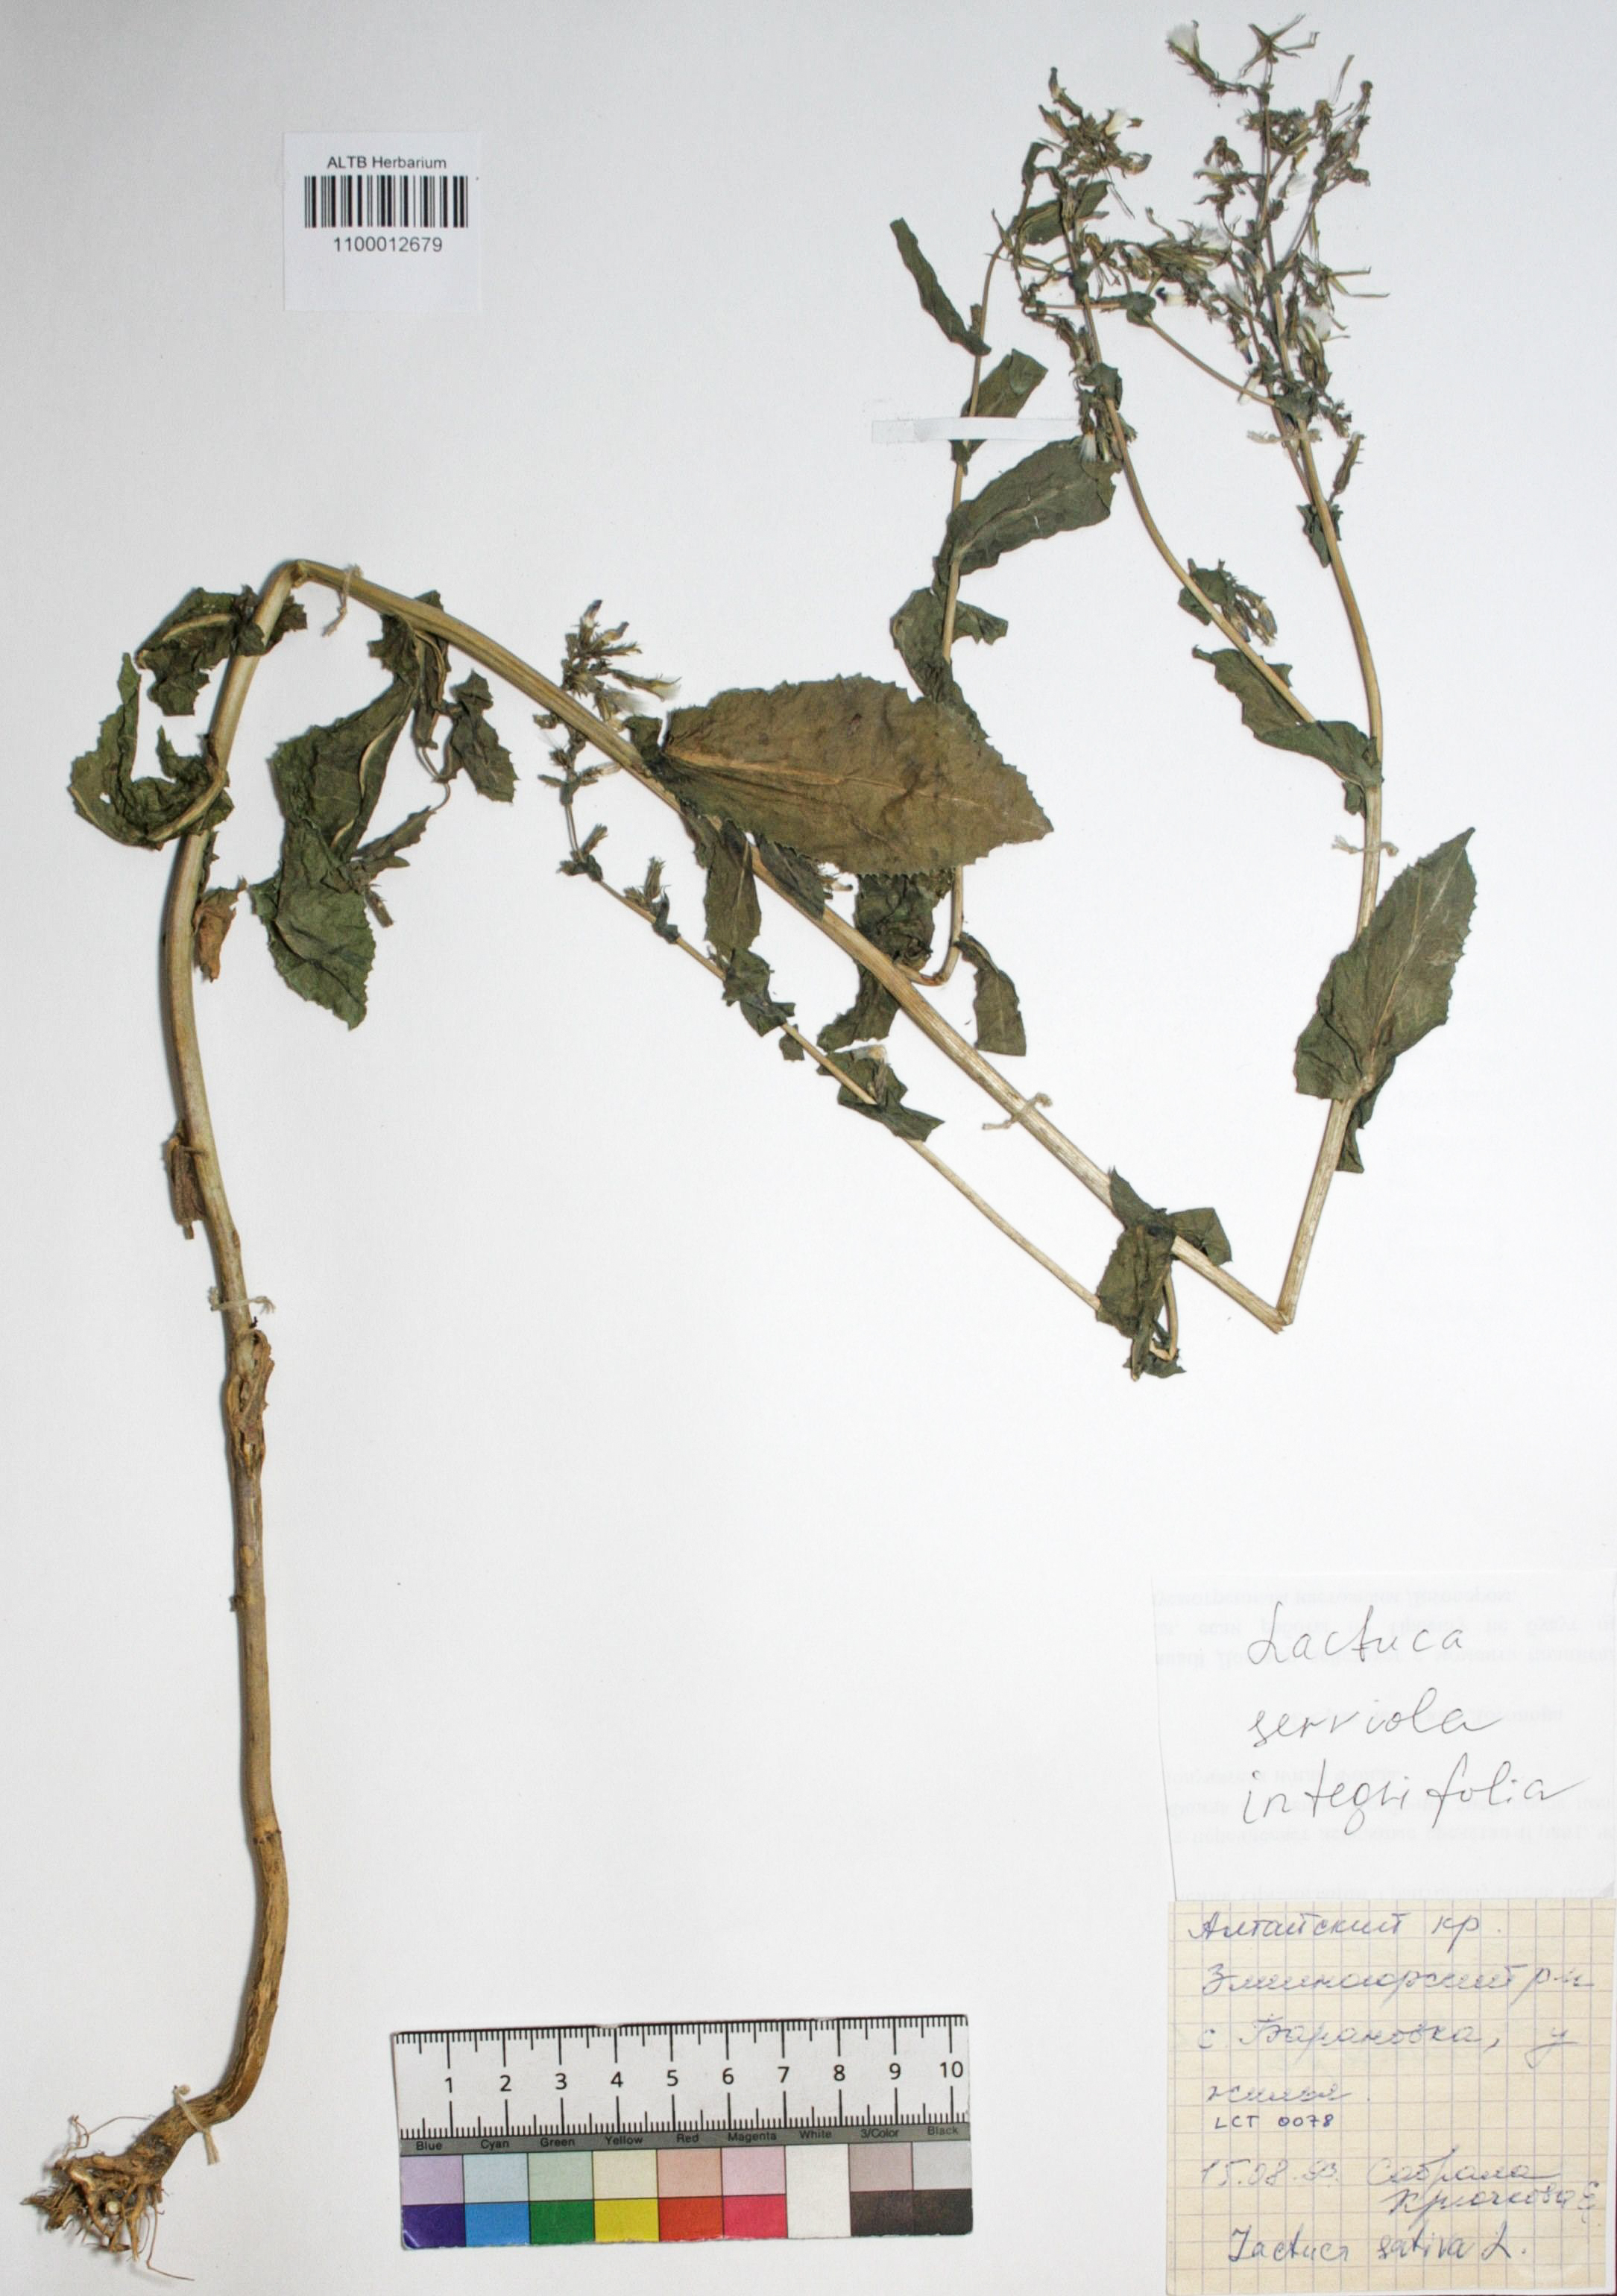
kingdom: Plantae
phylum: Tracheophyta
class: Magnoliopsida
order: Asterales
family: Asteraceae
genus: Lactuca
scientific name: Lactuca serriola
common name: Prickly lettuce
